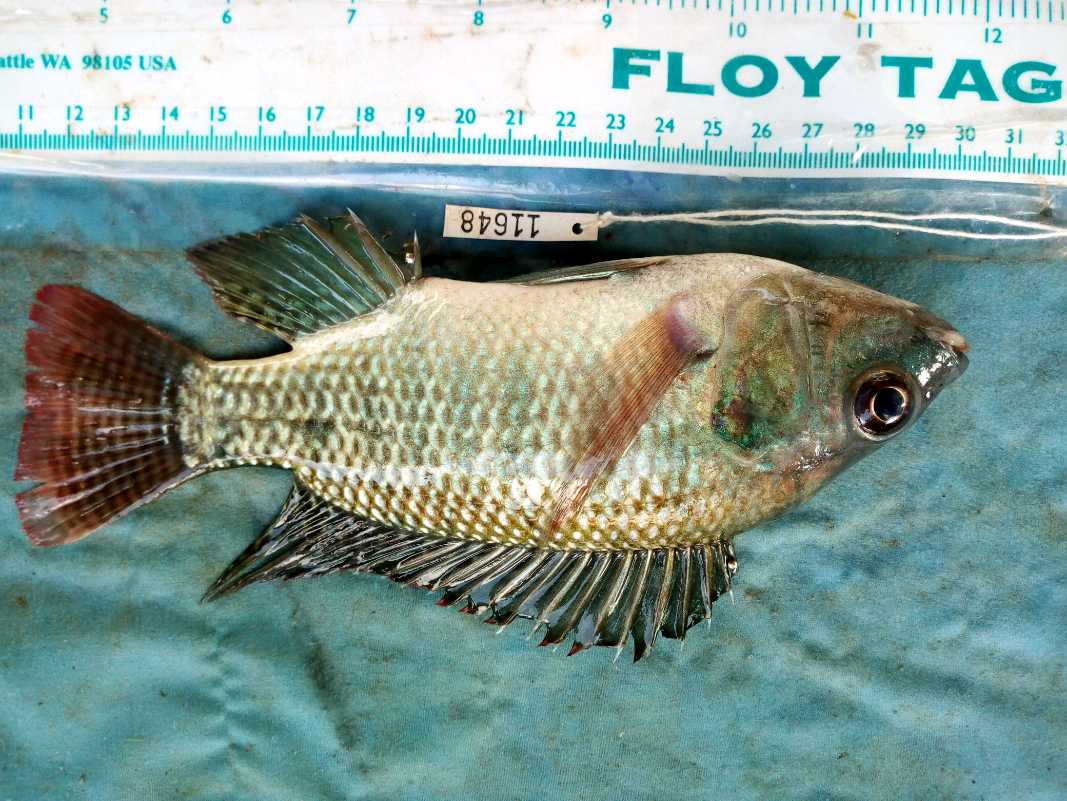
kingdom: Animalia
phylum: Chordata
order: Perciformes
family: Cichlidae
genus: Oreochromis
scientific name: Oreochromis niloticus
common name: Nile tilapia
